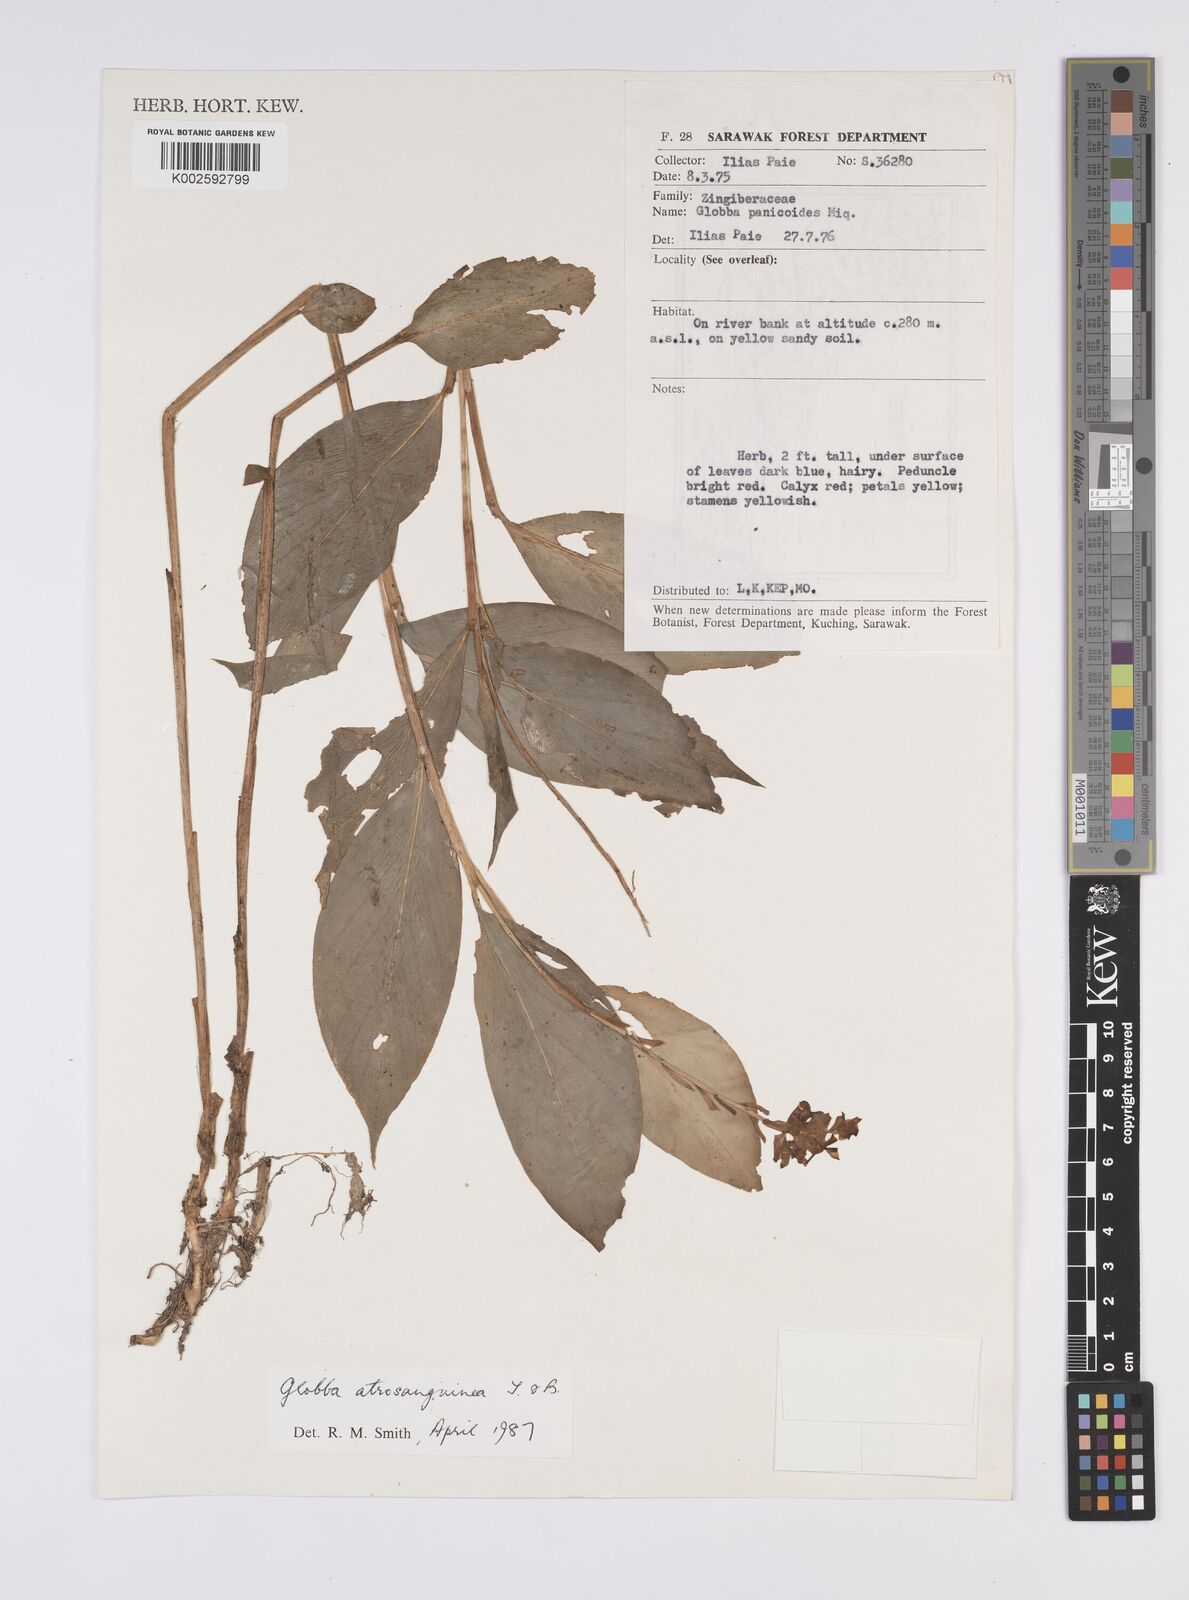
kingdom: Plantae
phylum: Tracheophyta
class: Liliopsida
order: Zingiberales
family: Zingiberaceae
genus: Globba
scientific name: Globba atrosanguinea
